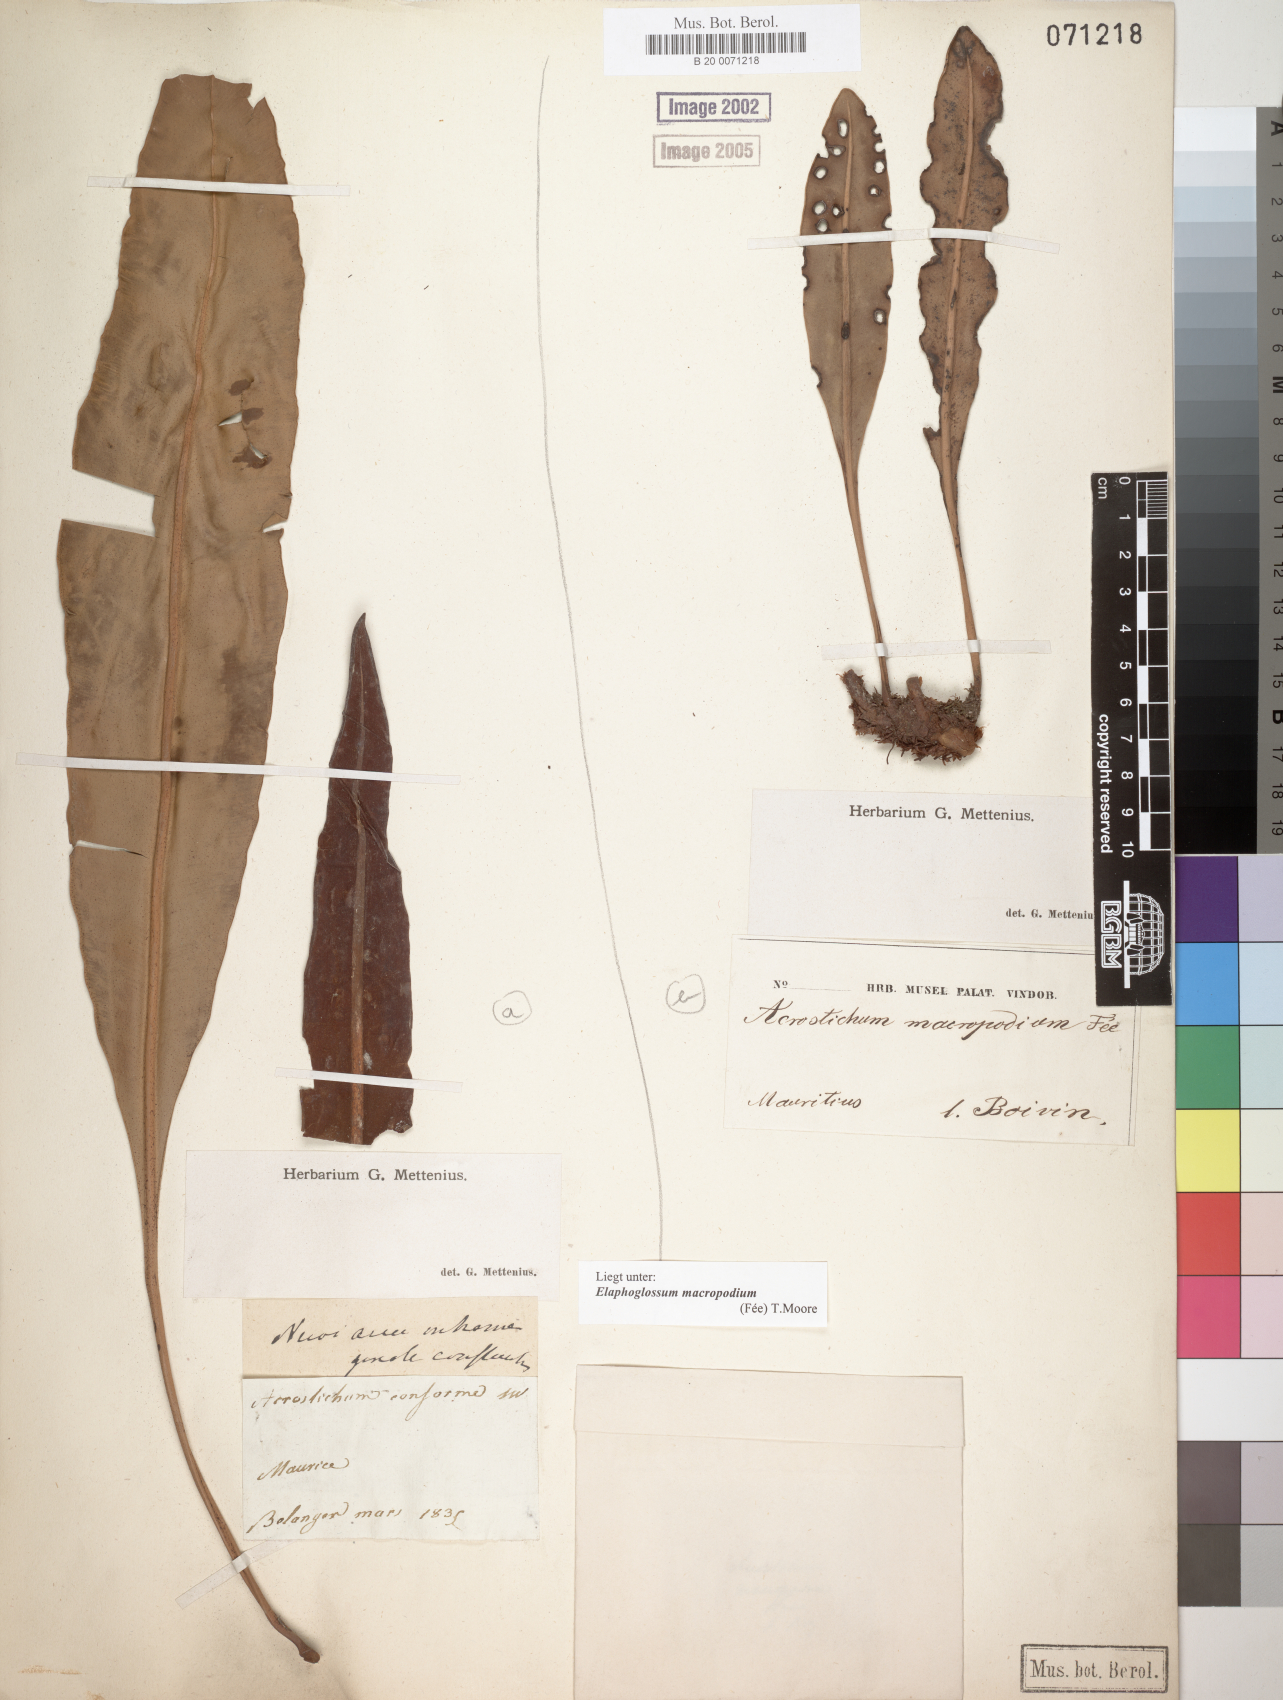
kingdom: Plantae
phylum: Tracheophyta
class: Polypodiopsida
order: Polypodiales
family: Dryopteridaceae
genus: Elaphoglossum
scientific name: Elaphoglossum macropodium
